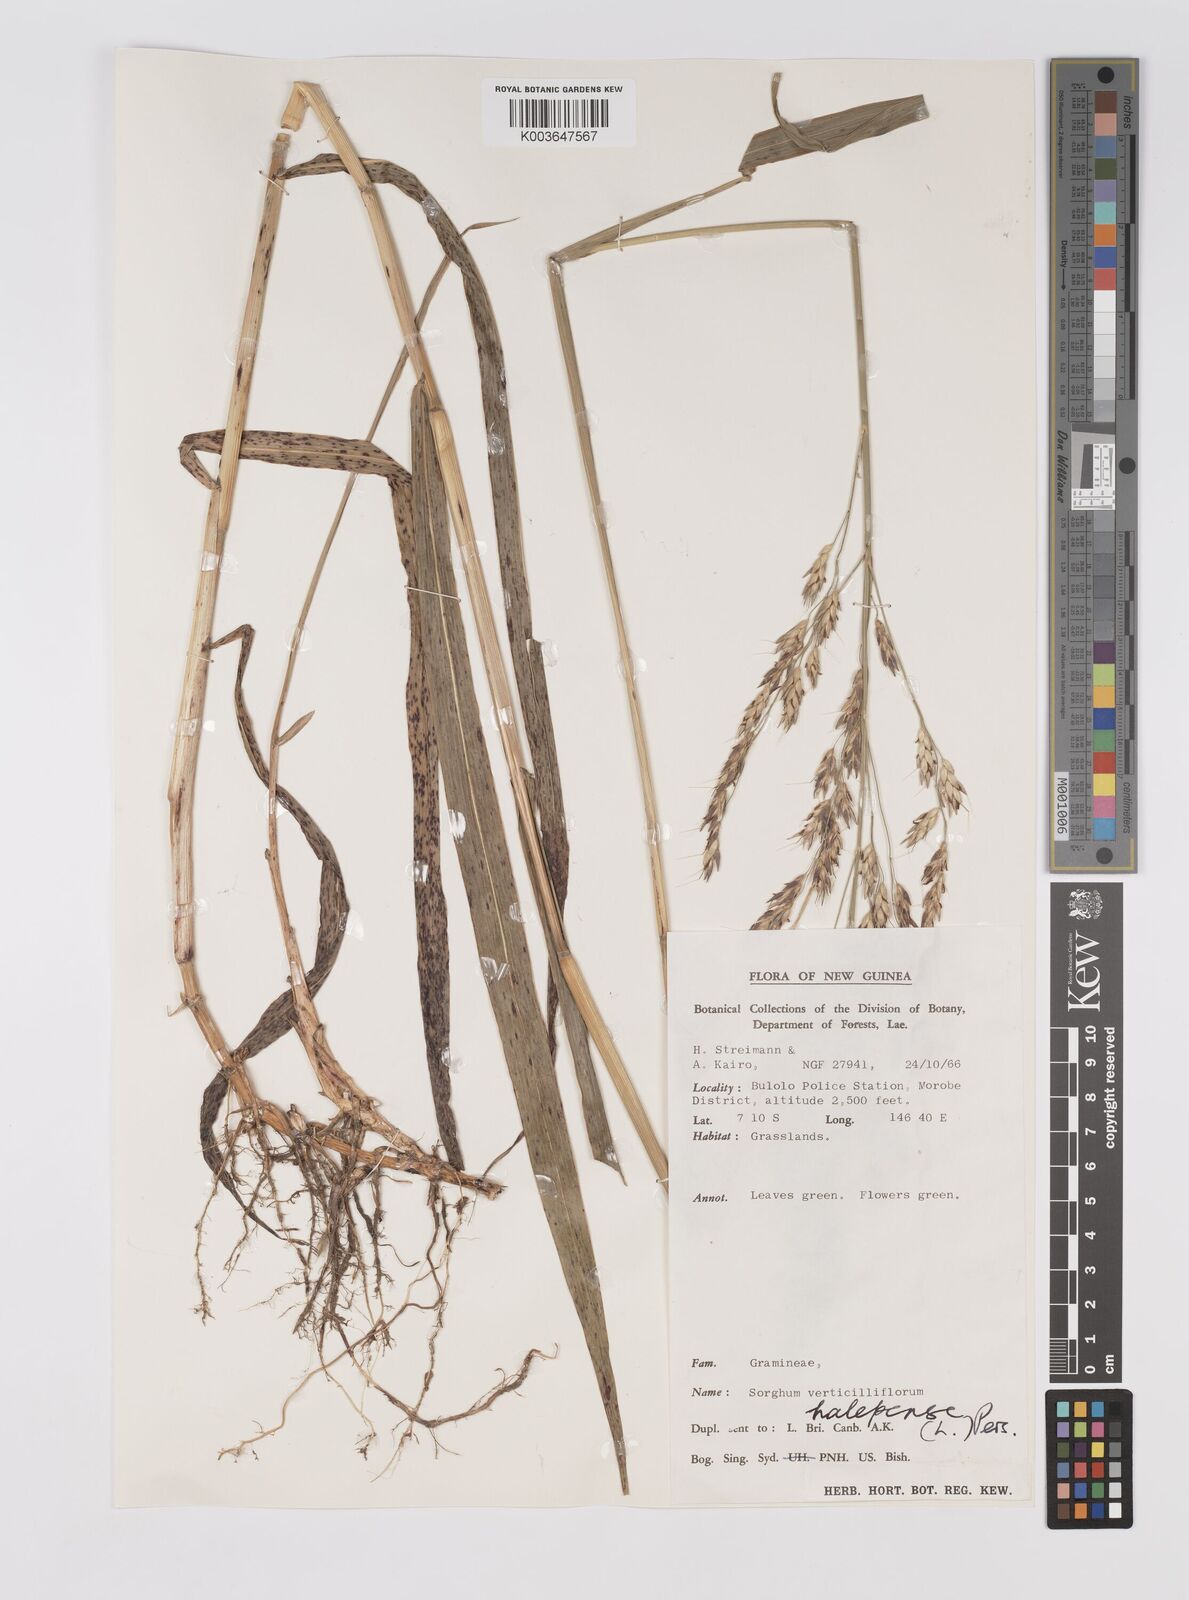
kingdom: Plantae
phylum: Tracheophyta
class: Liliopsida
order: Poales
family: Poaceae
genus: Sorghum
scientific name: Sorghum halepense
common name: Johnson-grass
